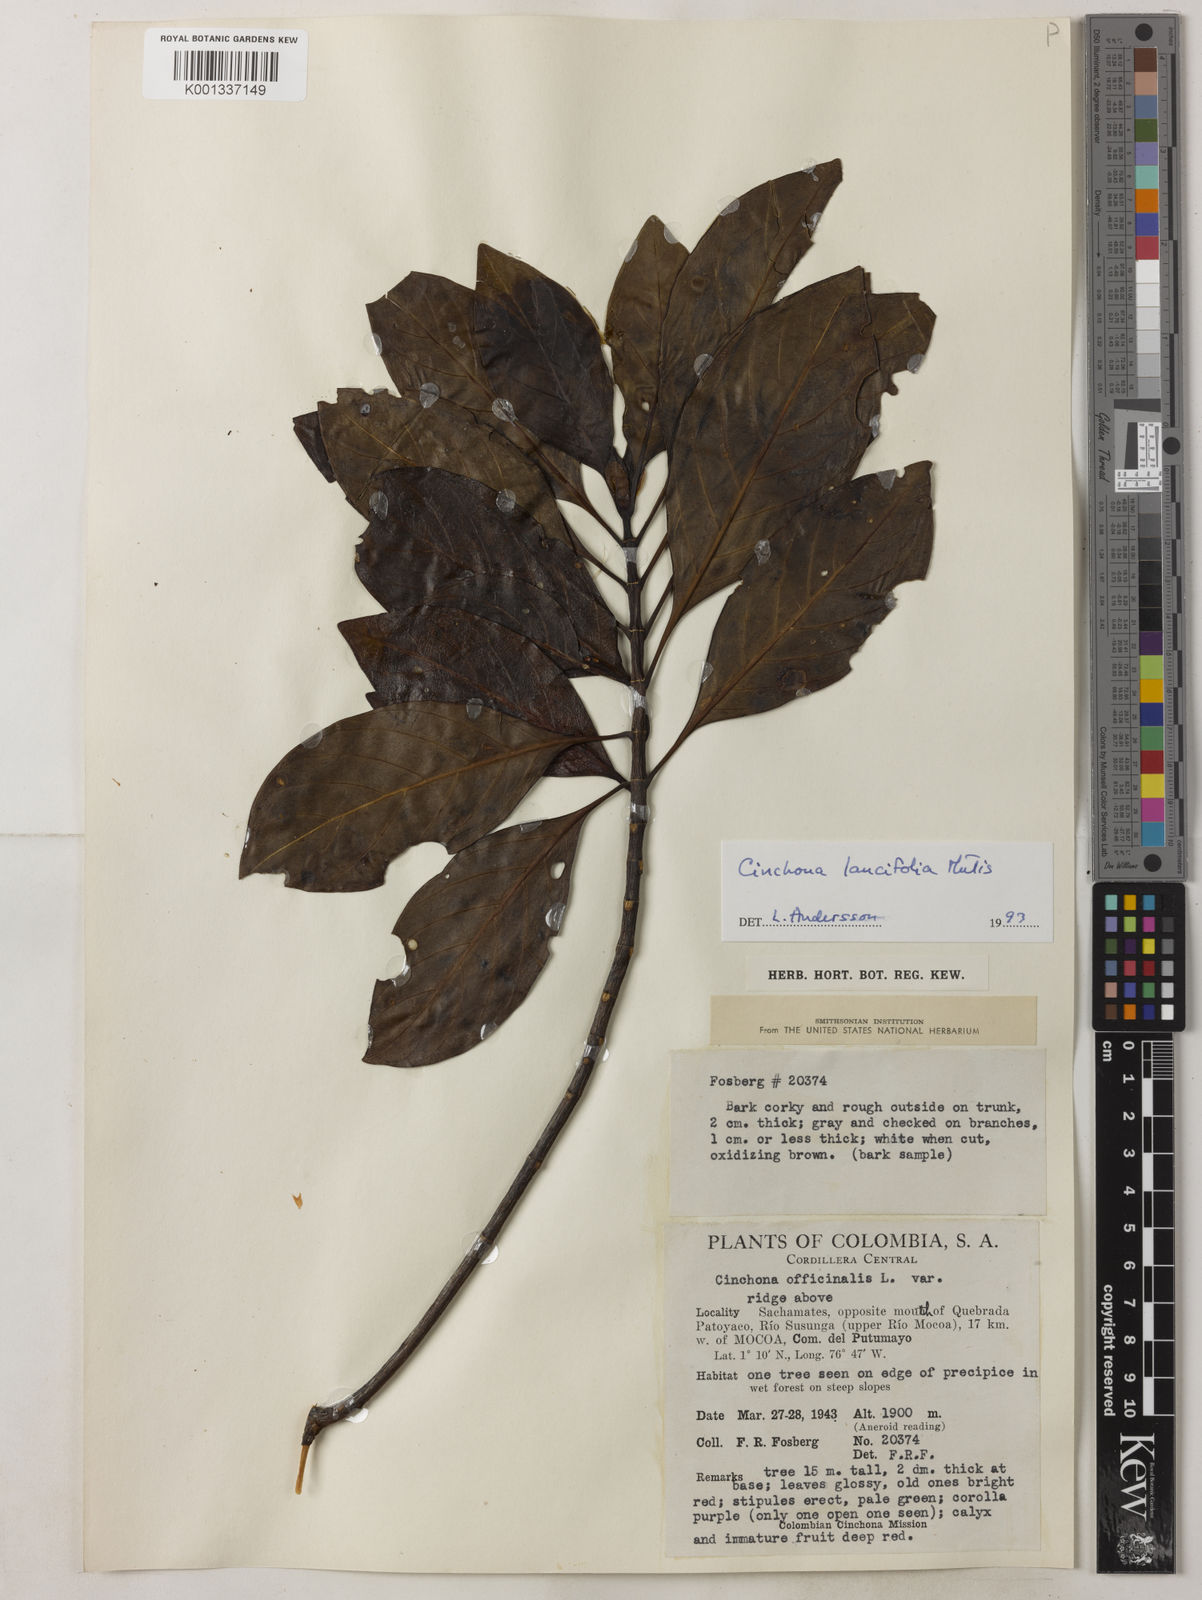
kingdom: Plantae
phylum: Tracheophyta
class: Magnoliopsida
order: Gentianales
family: Rubiaceae
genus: Cinchona
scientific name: Cinchona lancifolia
